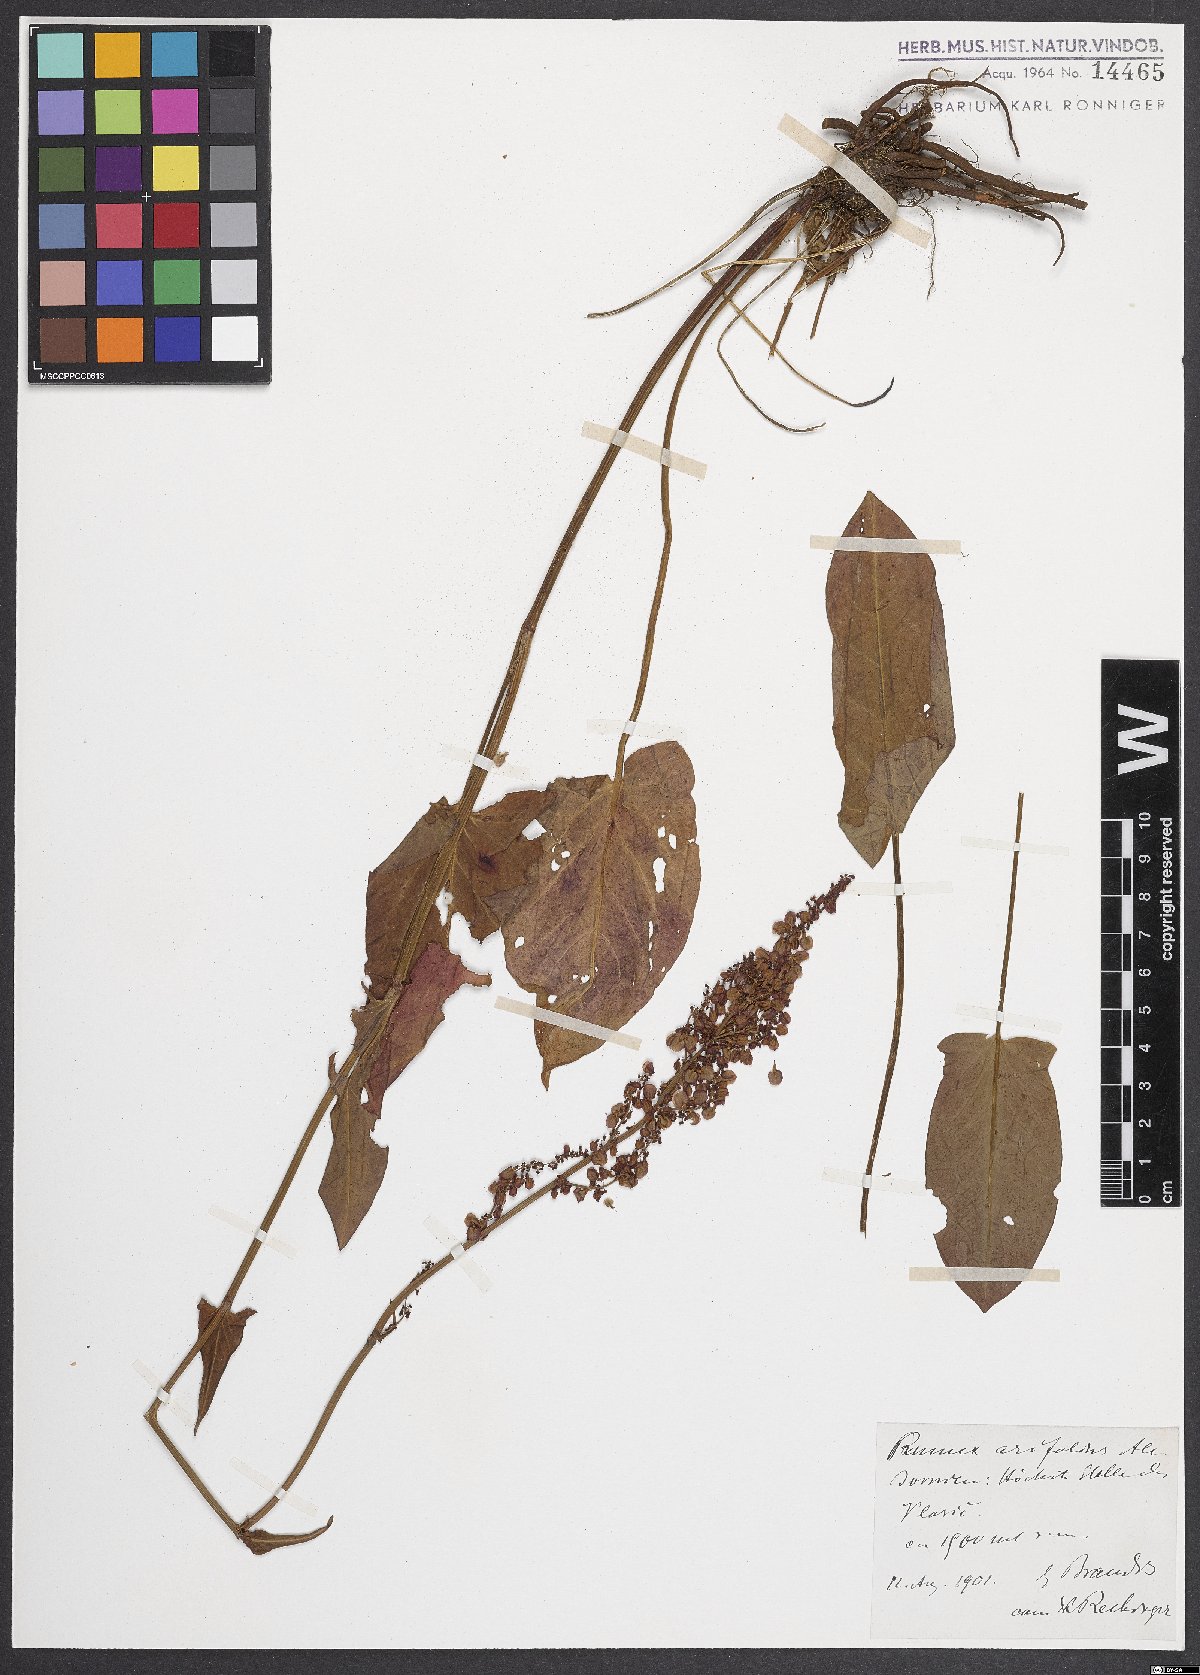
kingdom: Plantae
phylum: Tracheophyta
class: Magnoliopsida
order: Caryophyllales
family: Polygonaceae
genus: Rumex
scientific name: Rumex arifolius
